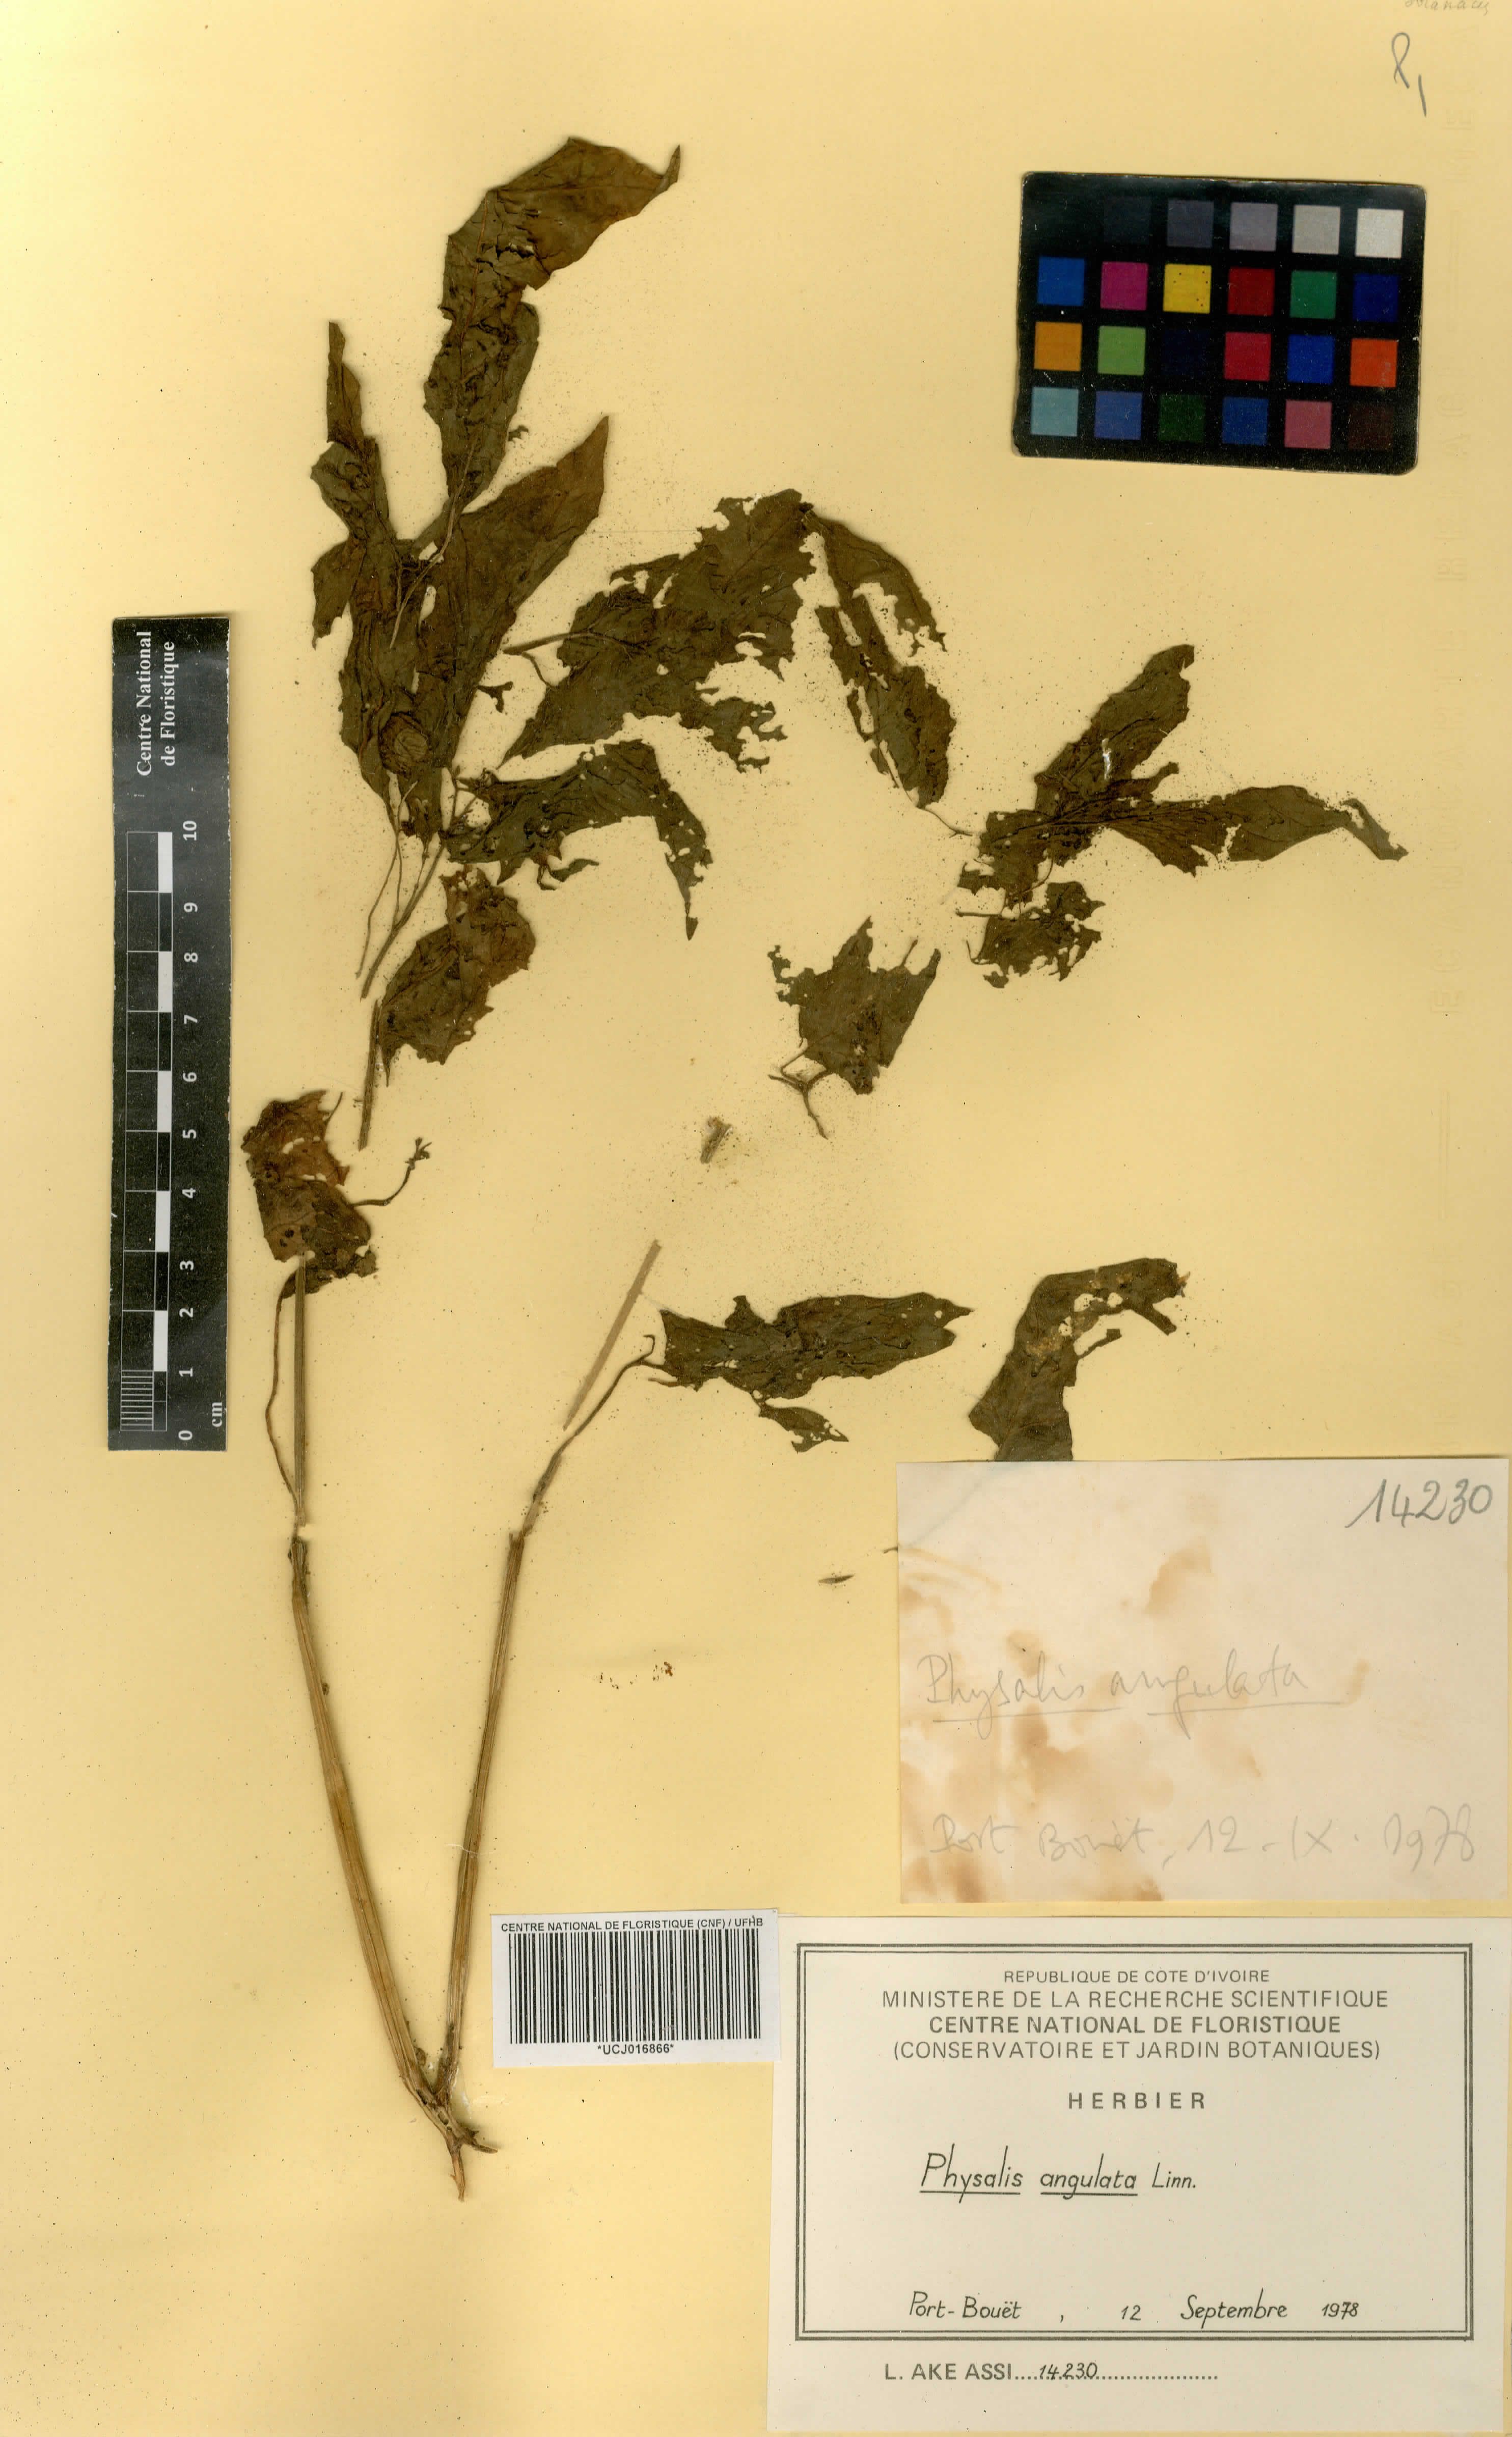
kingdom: Plantae
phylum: Tracheophyta
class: Magnoliopsida
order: Solanales
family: Solanaceae
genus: Physalis
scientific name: Physalis angulata
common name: Angular winter-cherry
